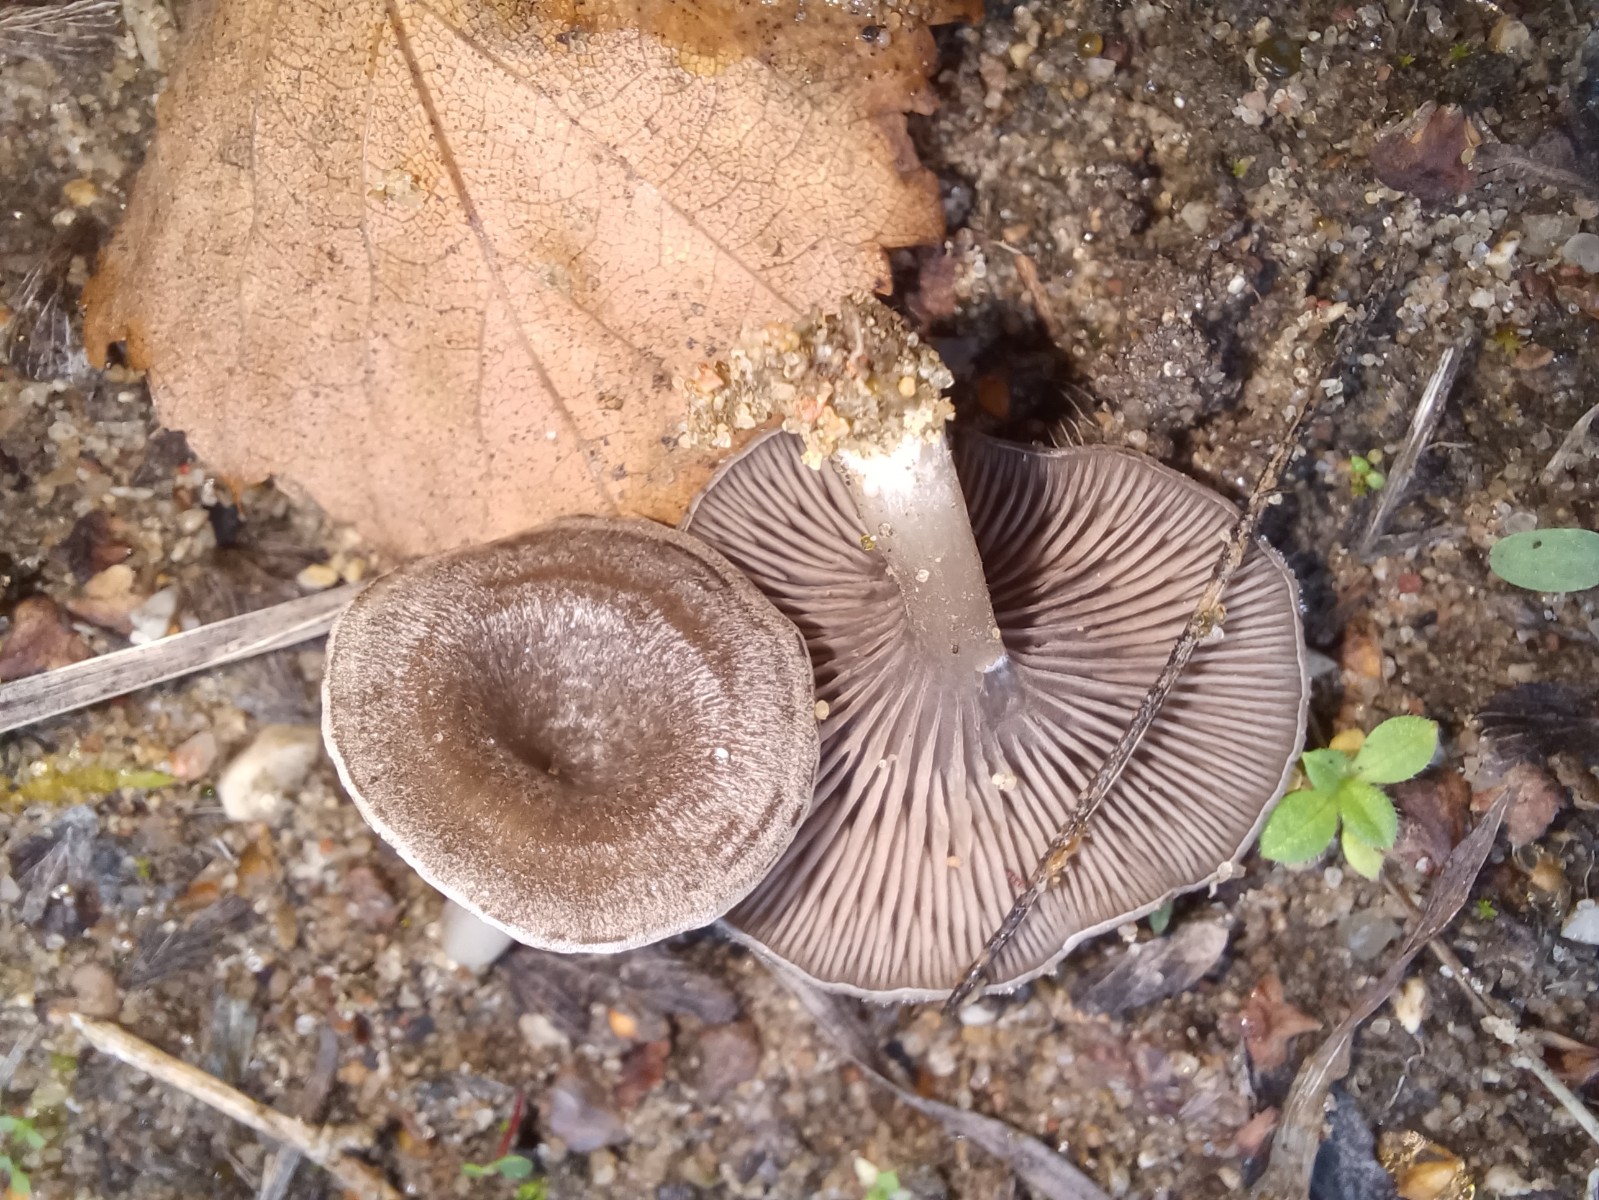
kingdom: Fungi
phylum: Basidiomycota
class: Agaricomycetes
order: Agaricales
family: Entolomataceae
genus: Entoloma
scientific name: Entoloma undatum
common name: bæltet rødblad
